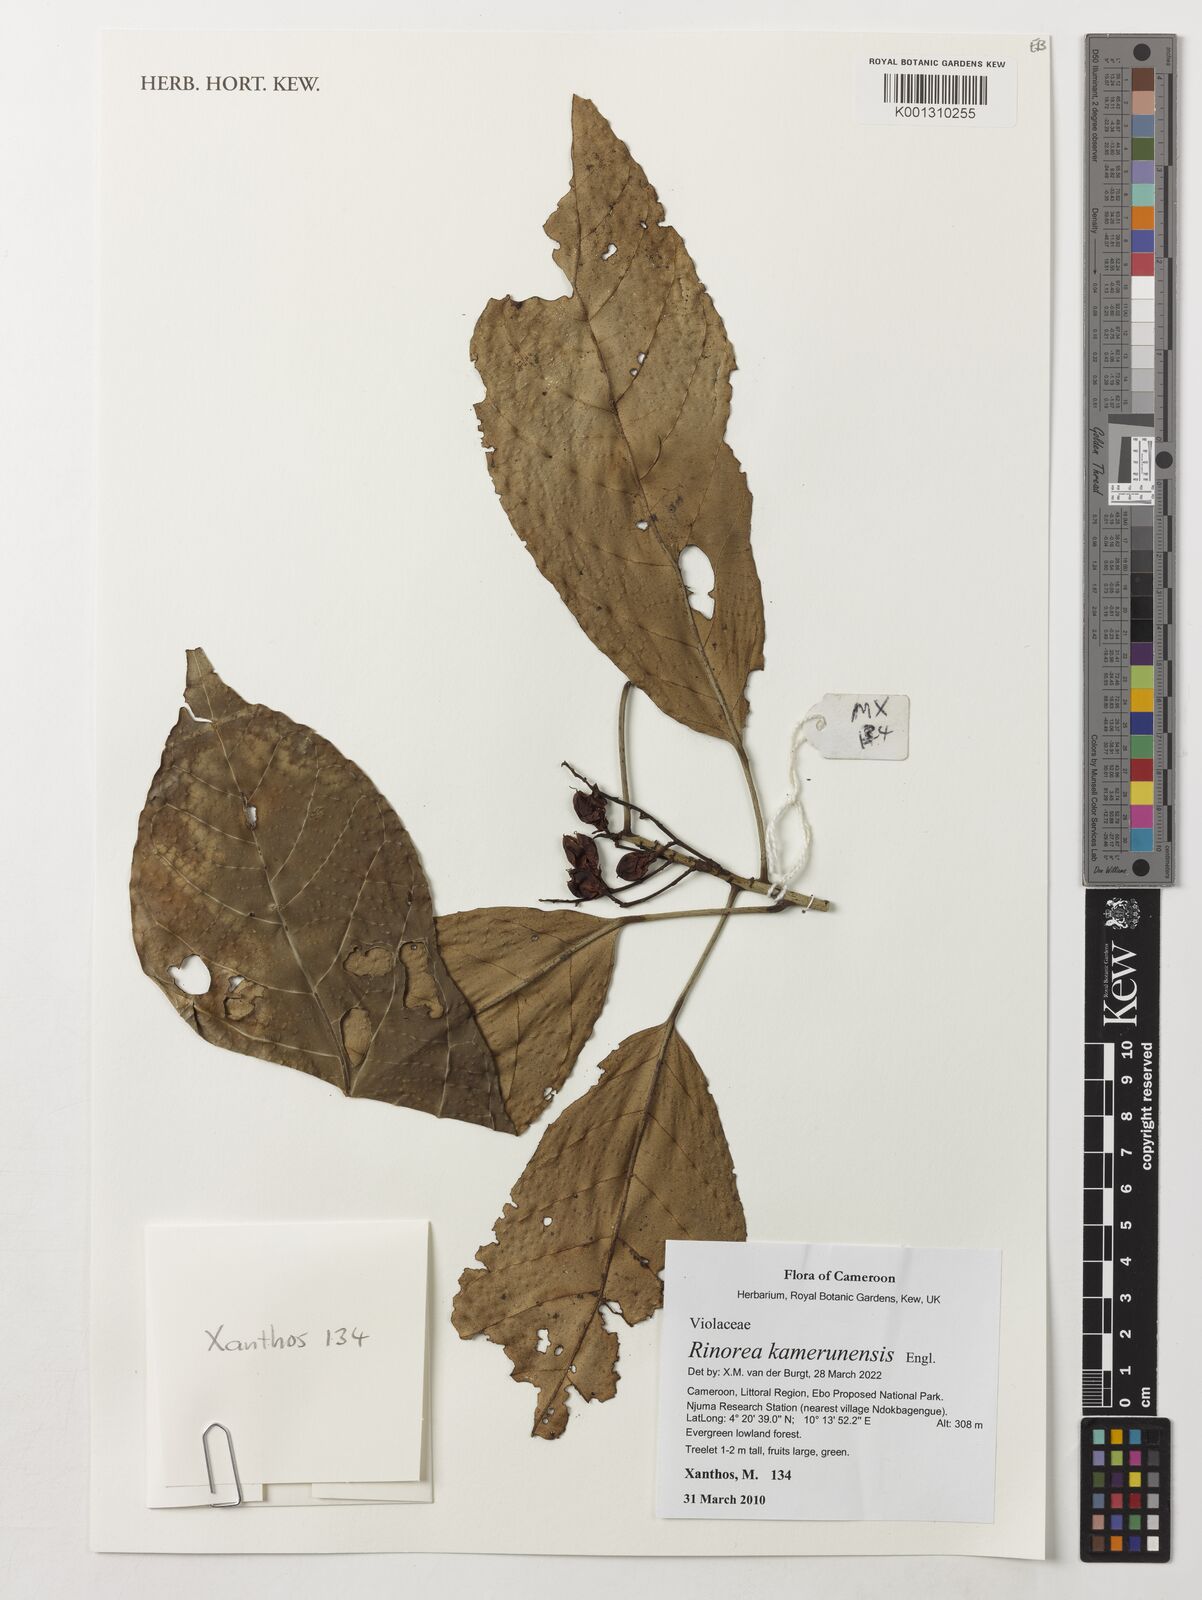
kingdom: Plantae
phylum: Tracheophyta
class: Magnoliopsida
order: Malpighiales
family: Violaceae
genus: Rinorea
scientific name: Rinorea kamerunensis
